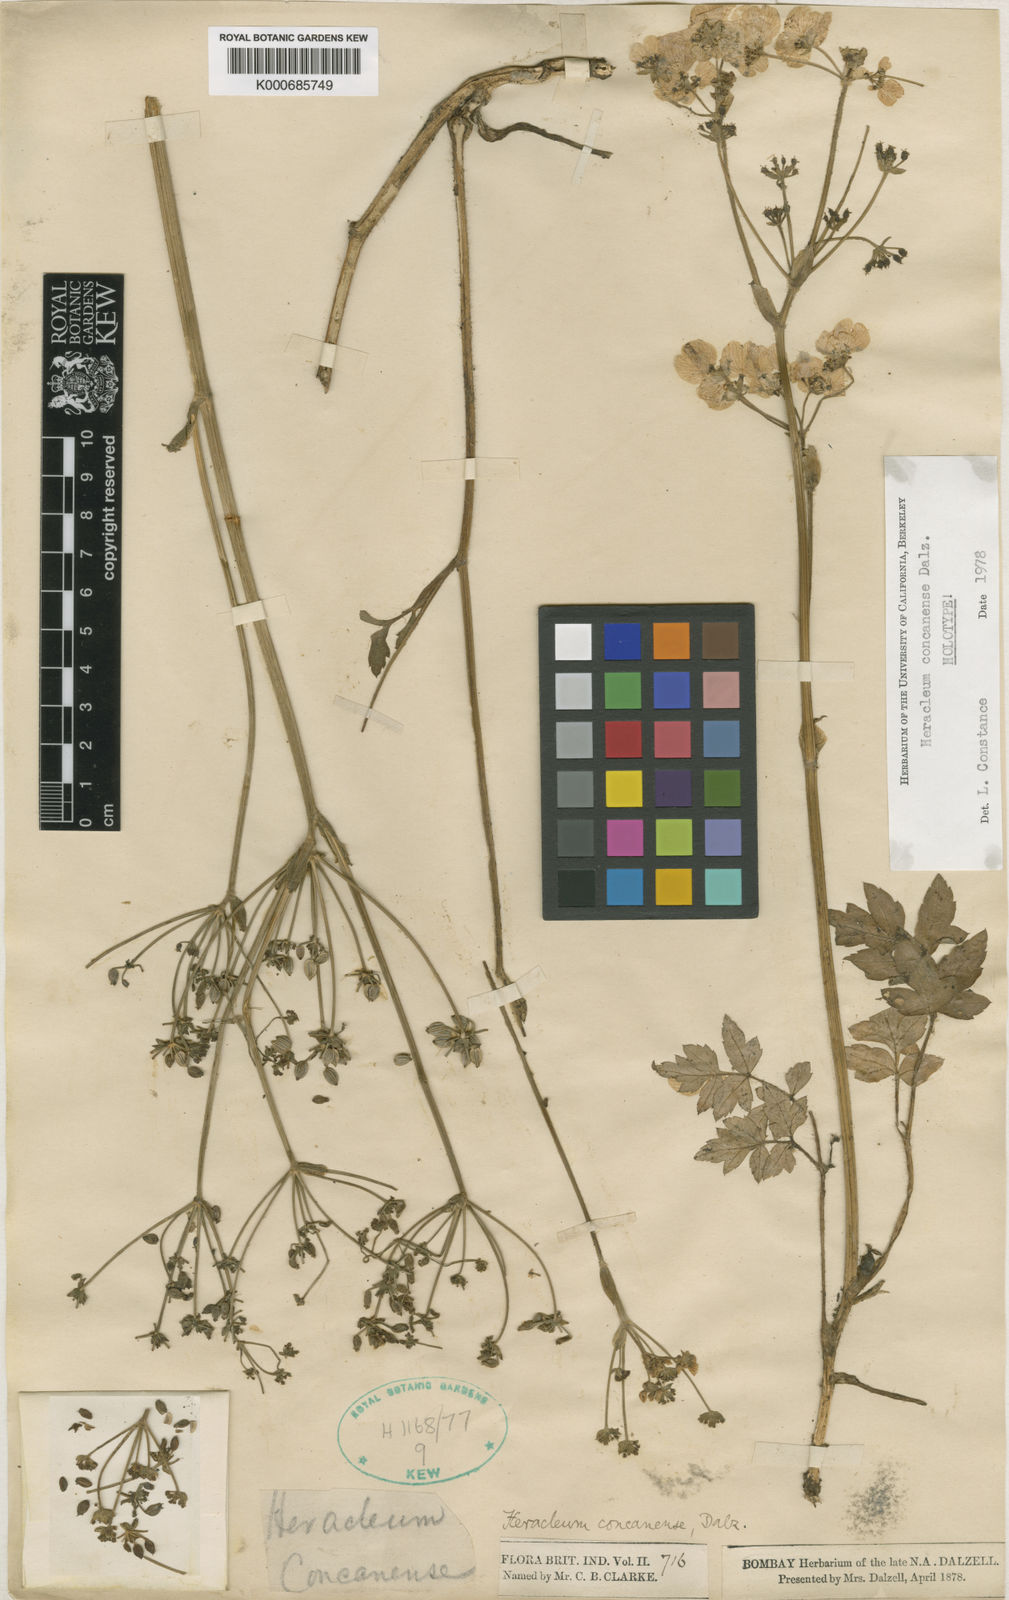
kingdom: Plantae
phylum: Tracheophyta
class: Magnoliopsida
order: Apiales
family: Apiaceae
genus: Pinda
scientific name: Pinda concanensis
